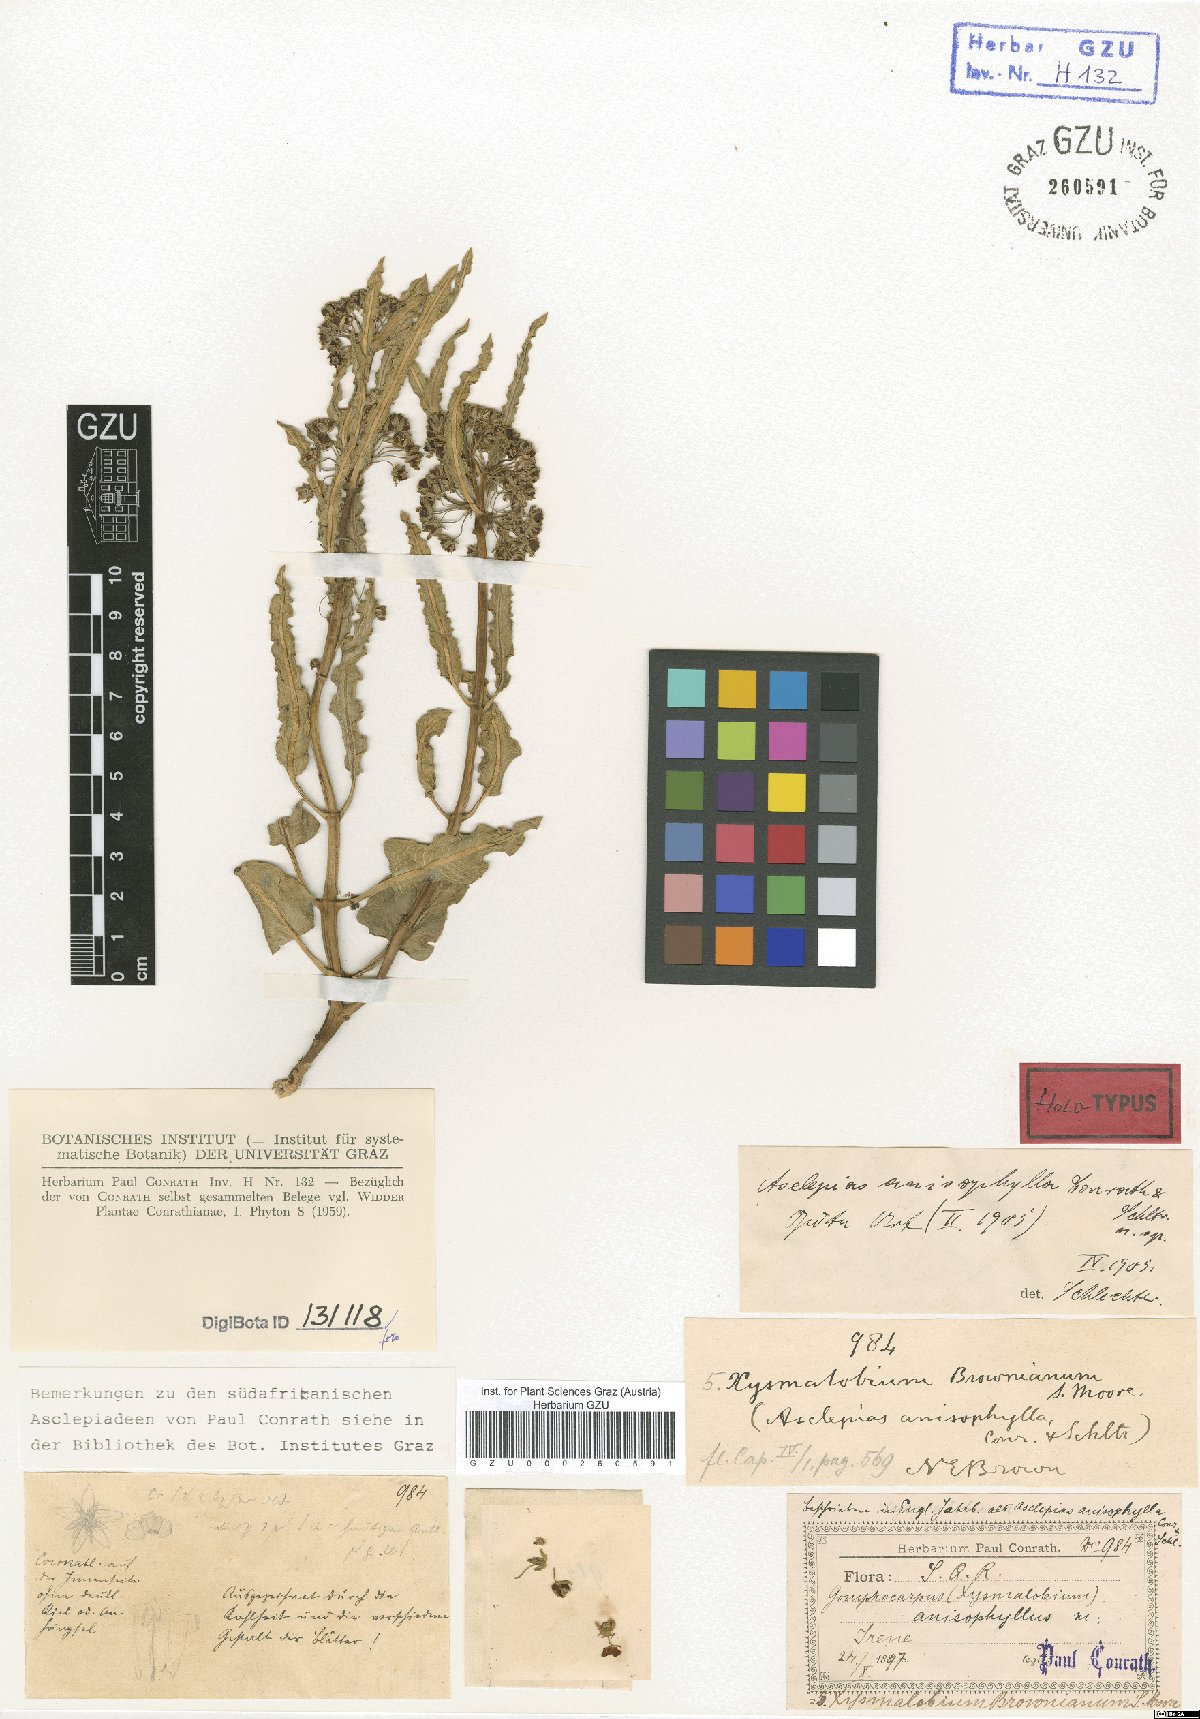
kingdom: Plantae
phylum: Tracheophyta
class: Magnoliopsida
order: Gentianales
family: Apocynaceae
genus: Xysmalobium
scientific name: Xysmalobium brownianum
